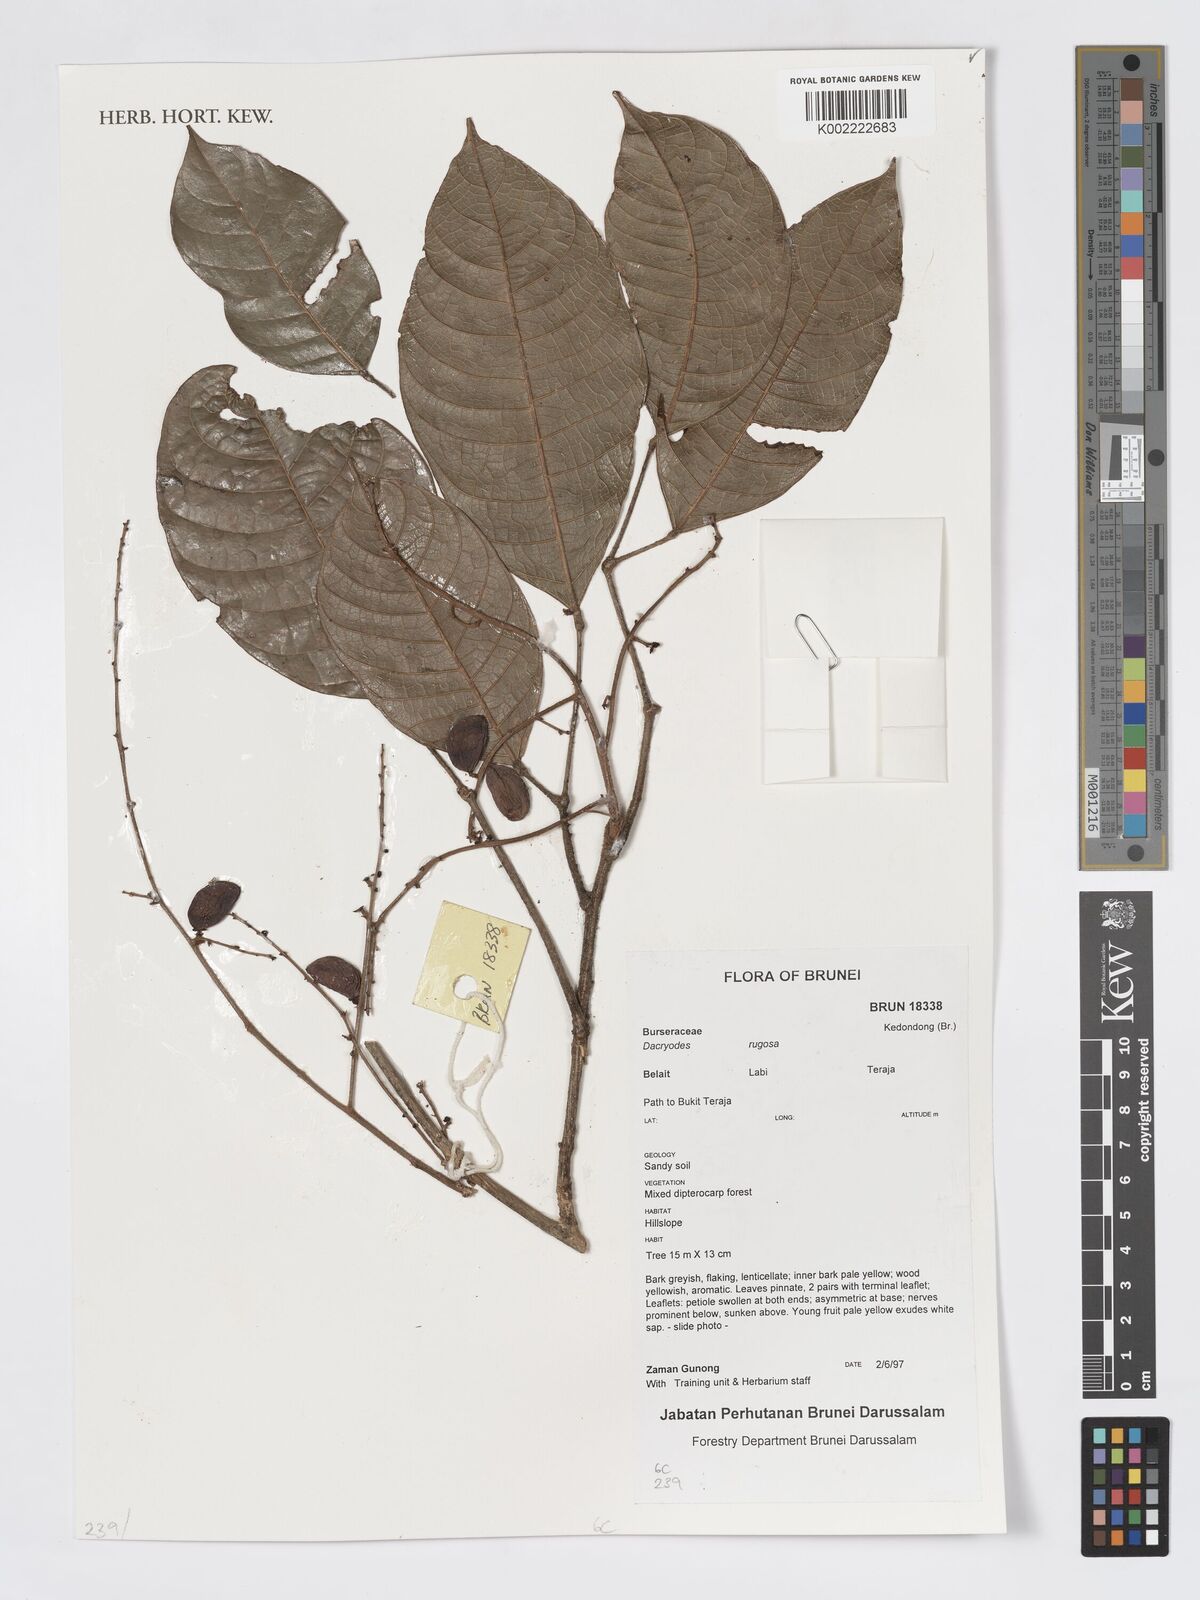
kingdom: Plantae
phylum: Tracheophyta
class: Magnoliopsida
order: Sapindales
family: Burseraceae
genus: Dacryodes
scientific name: Dacryodes rugosa
